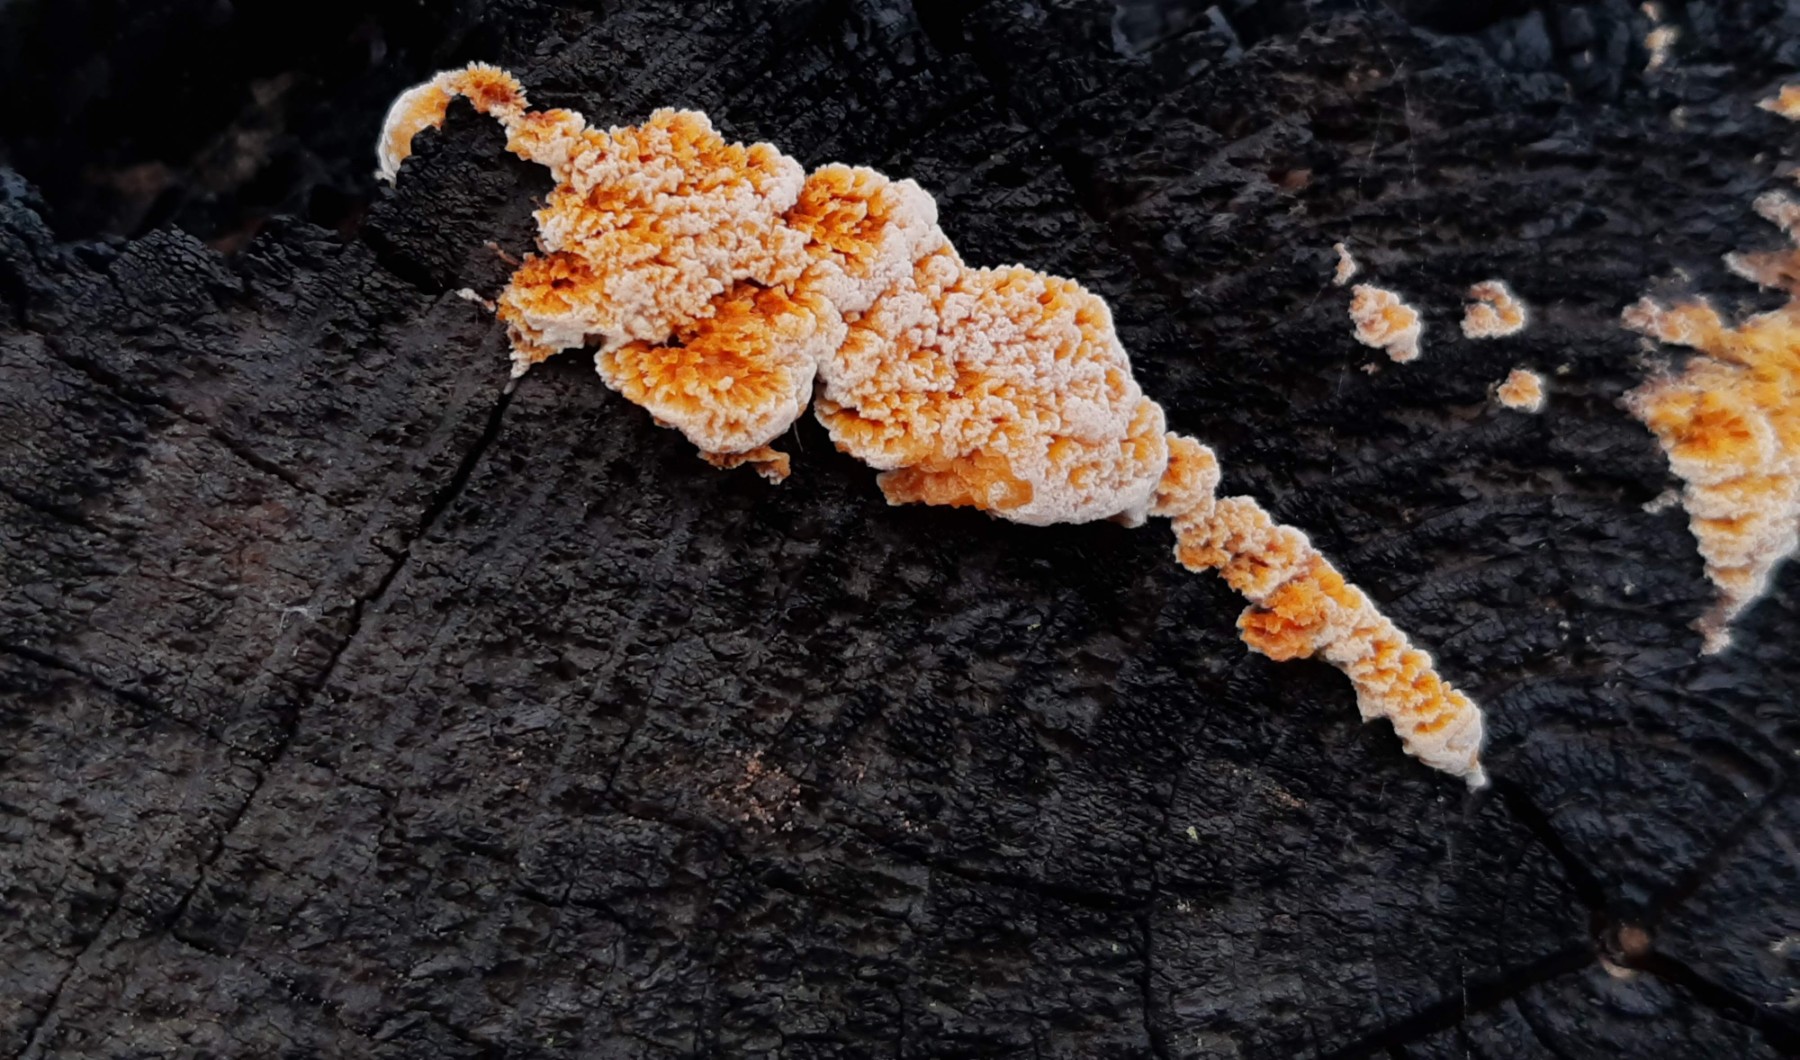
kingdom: Fungi
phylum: Basidiomycota
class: Agaricomycetes
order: Polyporales
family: Pycnoporellaceae
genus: Pycnoporellus
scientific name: Pycnoporellus fulgens
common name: flammeporesvamp
